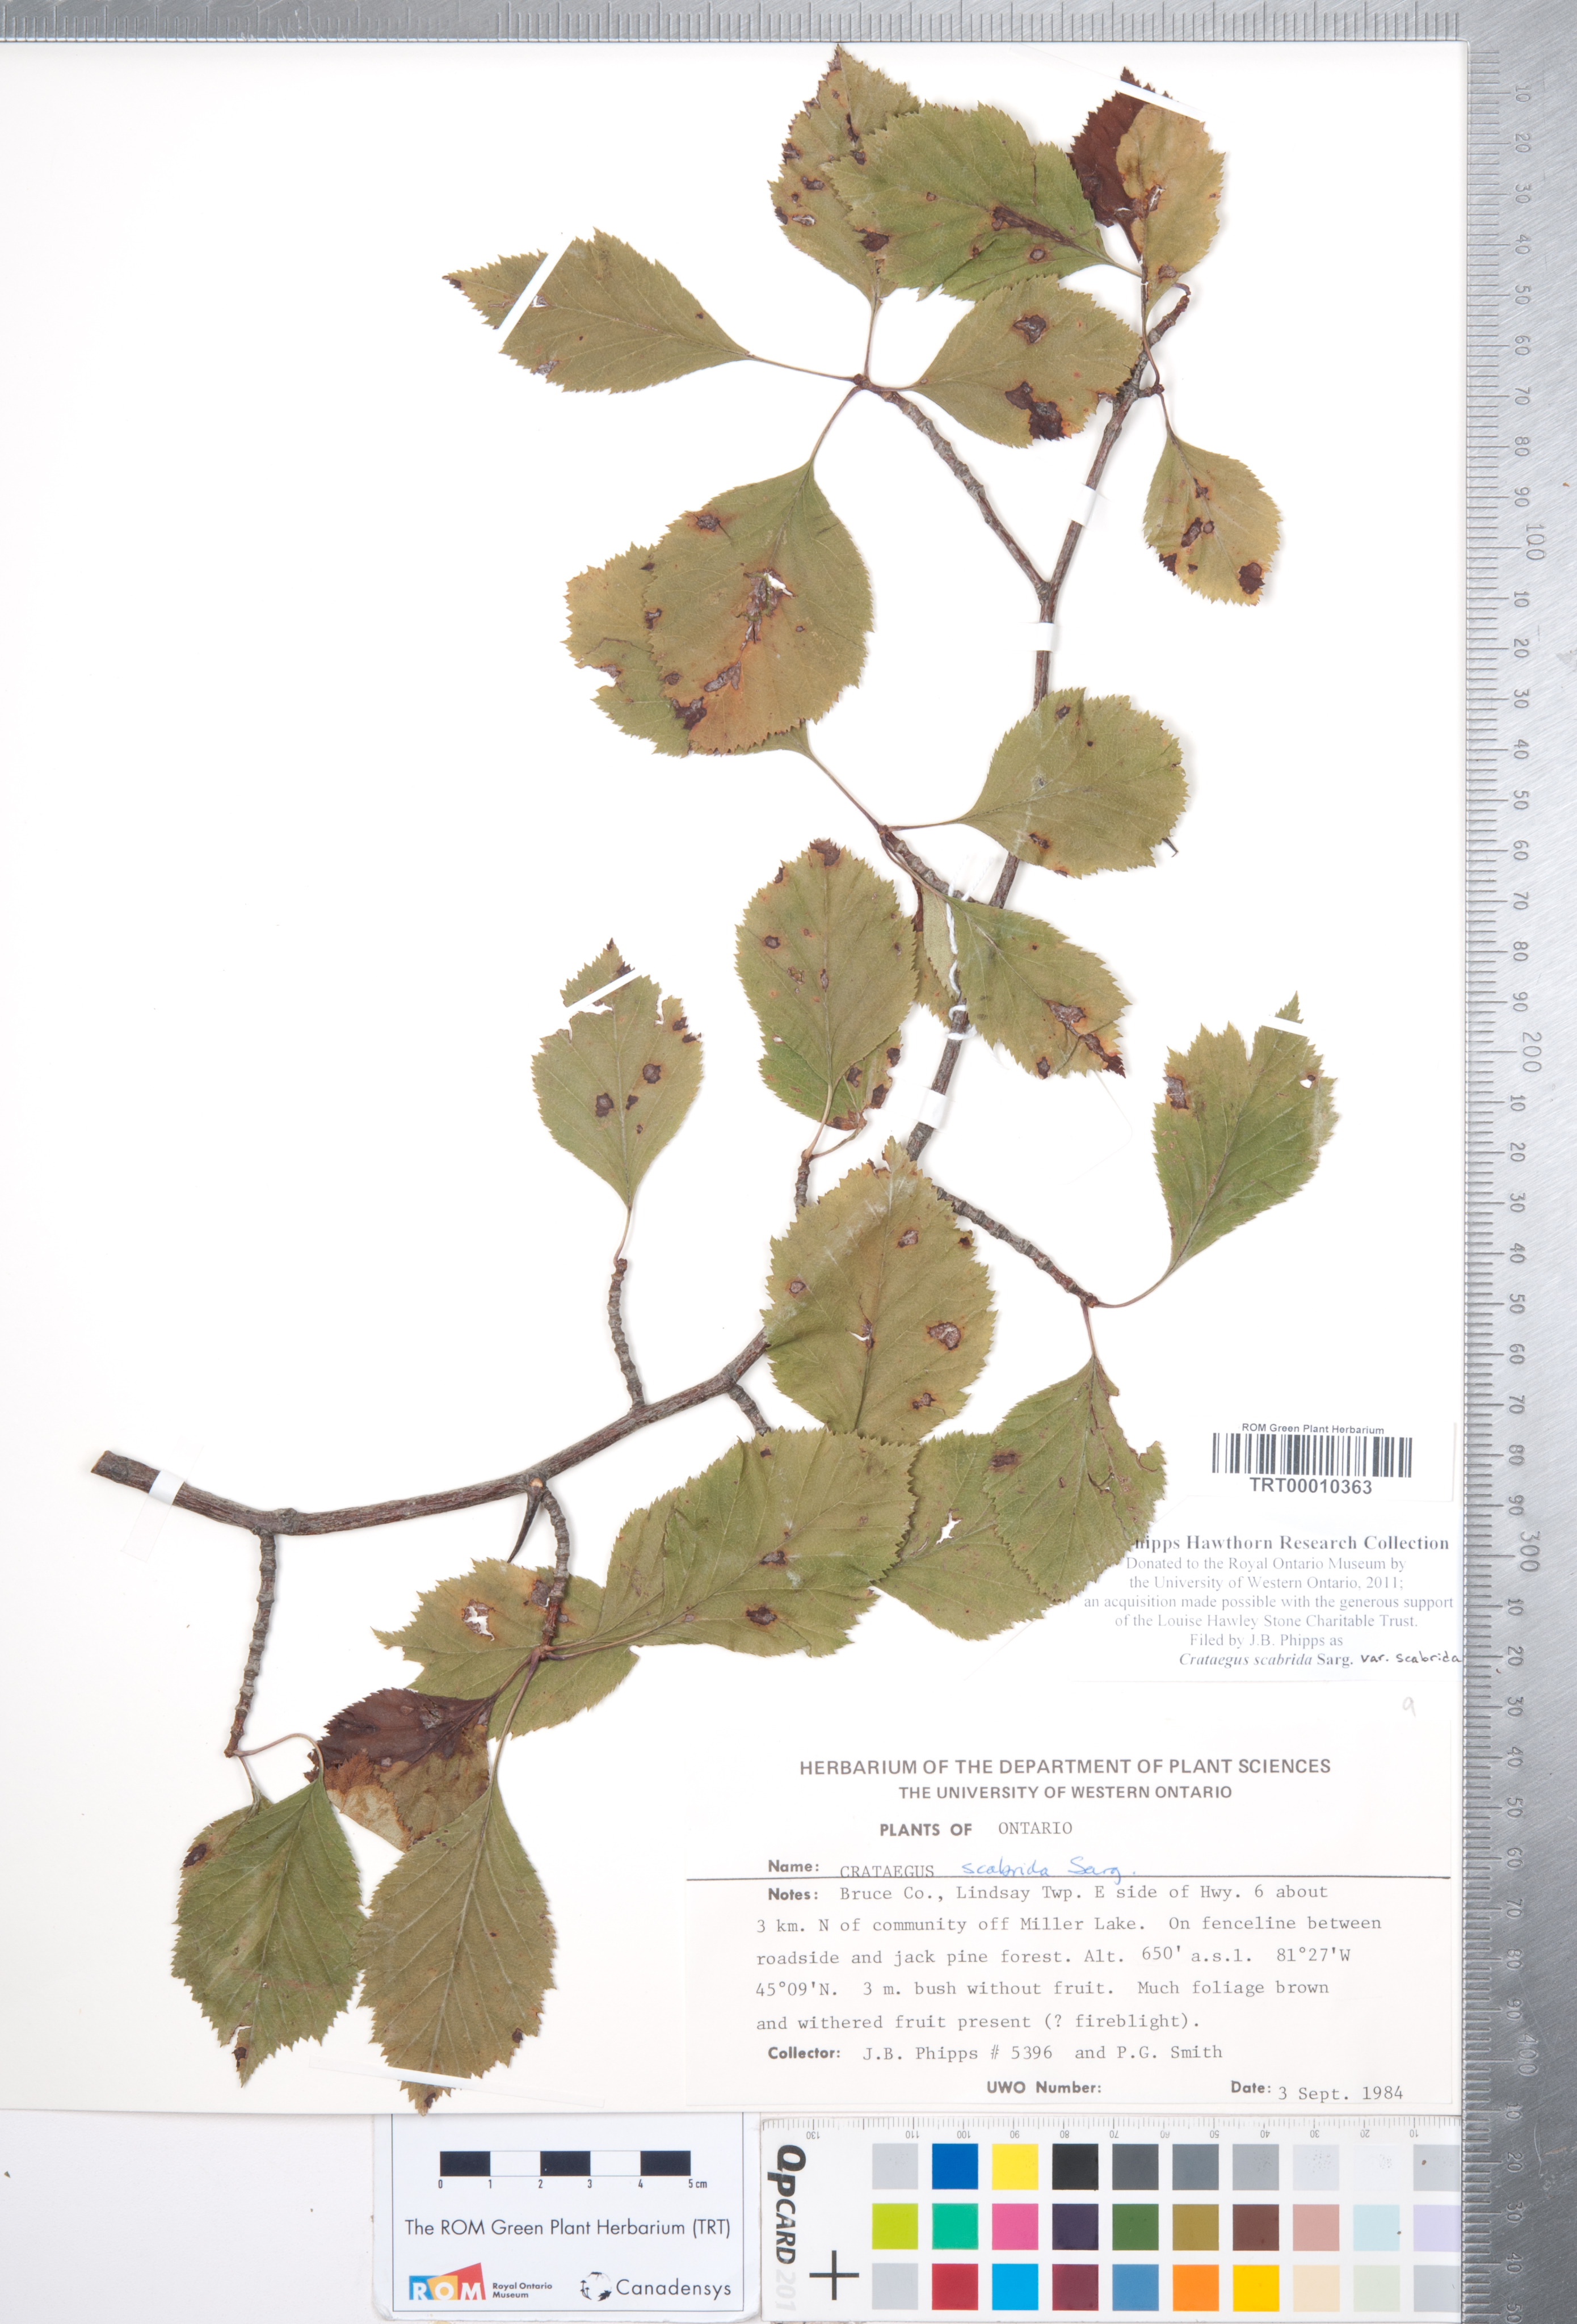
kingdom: Plantae
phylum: Tracheophyta
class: Magnoliopsida
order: Rosales
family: Rosaceae
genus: Crataegus
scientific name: Crataegus scabrida
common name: Rough hawthorn
